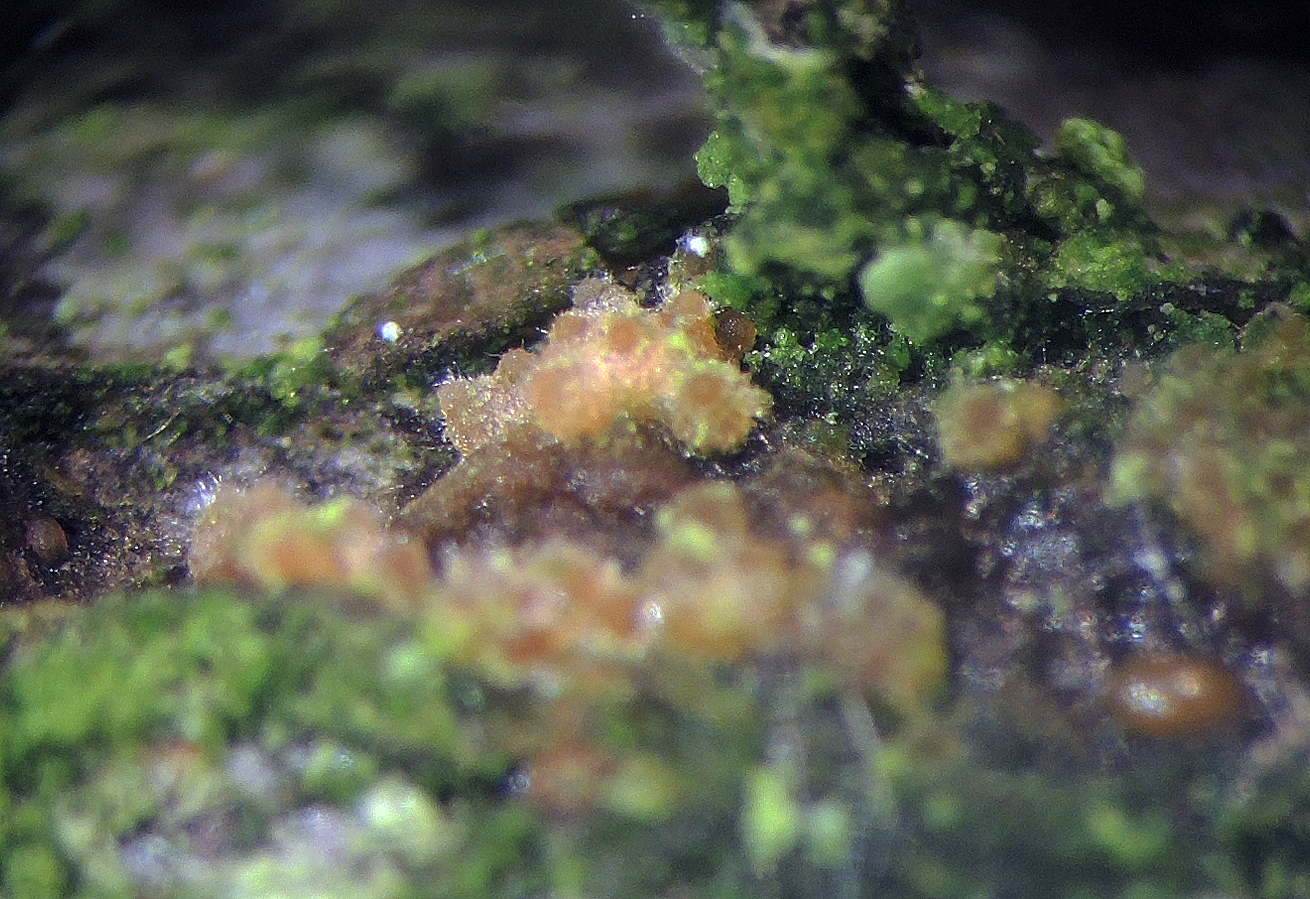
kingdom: Fungi
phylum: Ascomycota
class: Sordariomycetes
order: Hypocreales
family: Bionectriaceae
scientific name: Bionectriaceae
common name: gyldenkernefamilien
